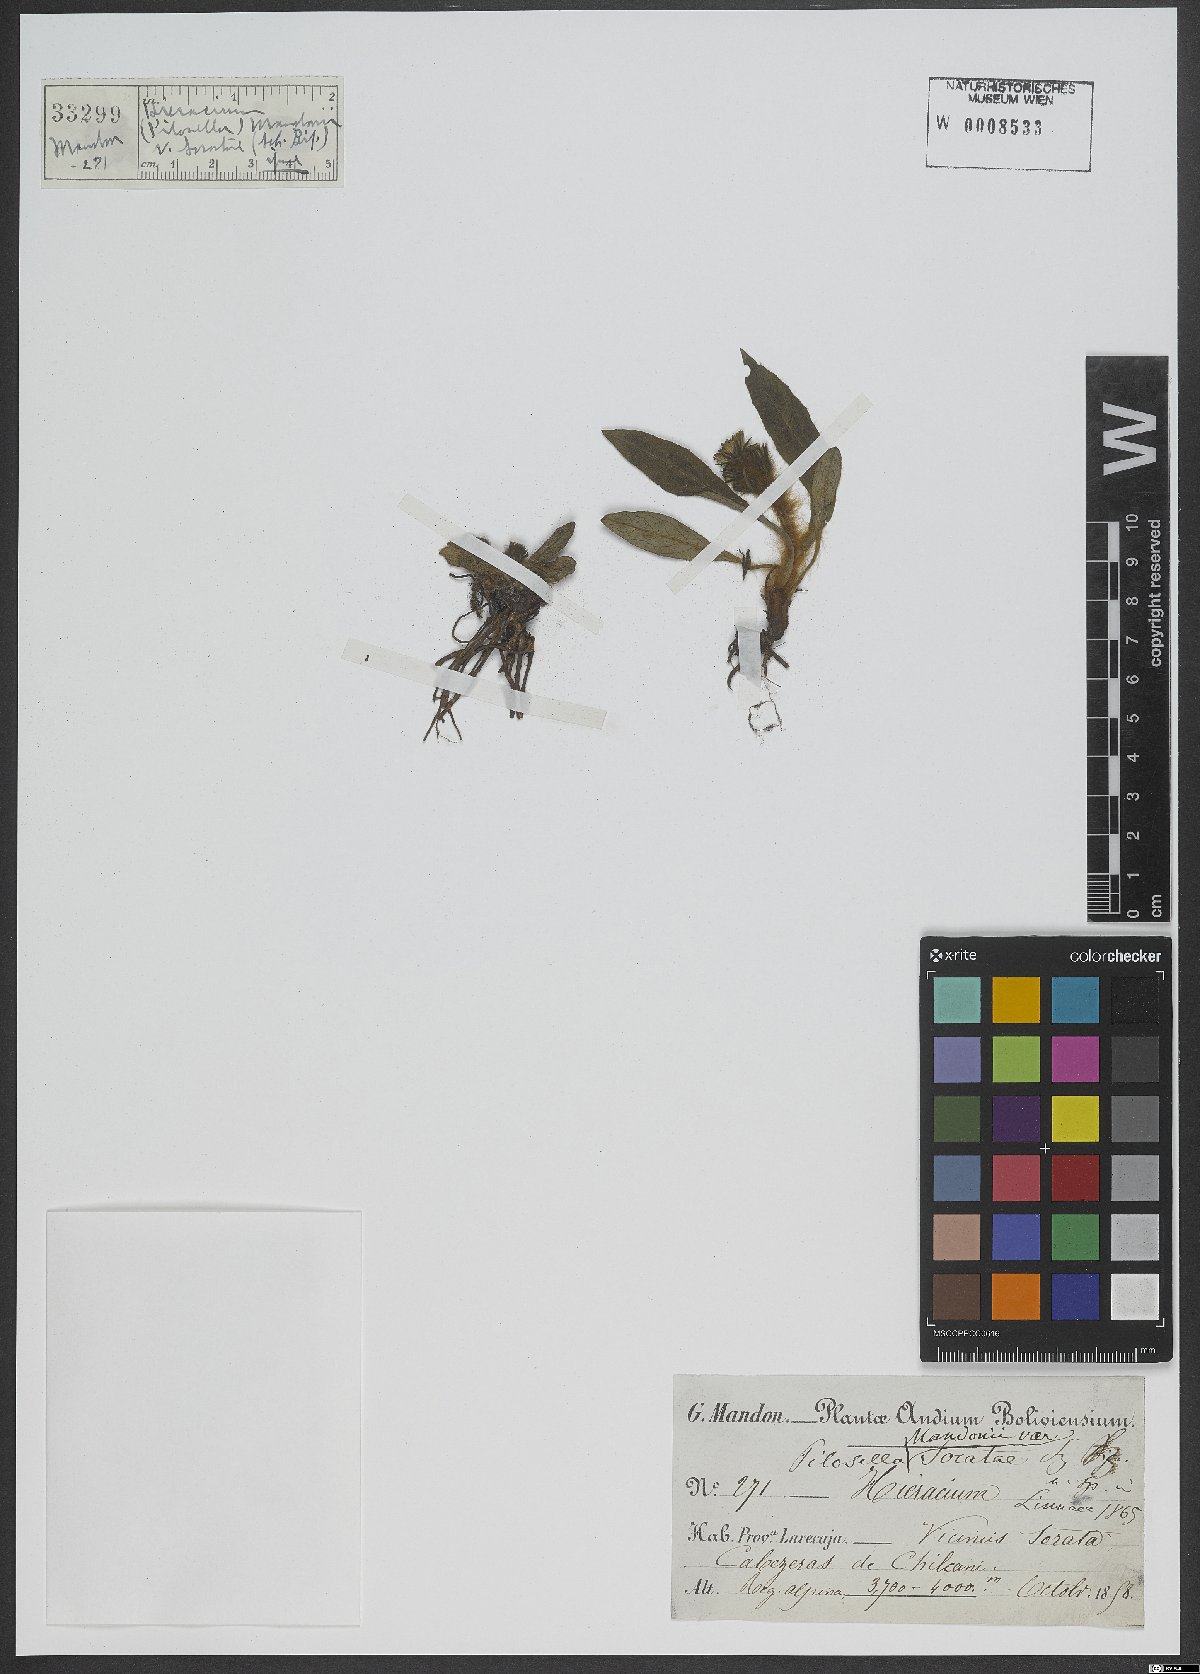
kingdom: Plantae
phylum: Tracheophyta
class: Magnoliopsida
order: Asterales
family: Asteraceae
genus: Hieracium
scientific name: Hieracium
